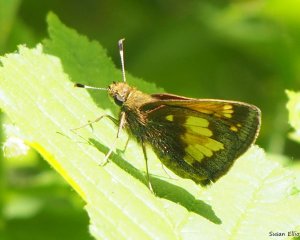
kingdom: Animalia
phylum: Arthropoda
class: Insecta
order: Lepidoptera
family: Hesperiidae
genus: Lon
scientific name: Lon hobomok
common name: Hobomok Skipper
